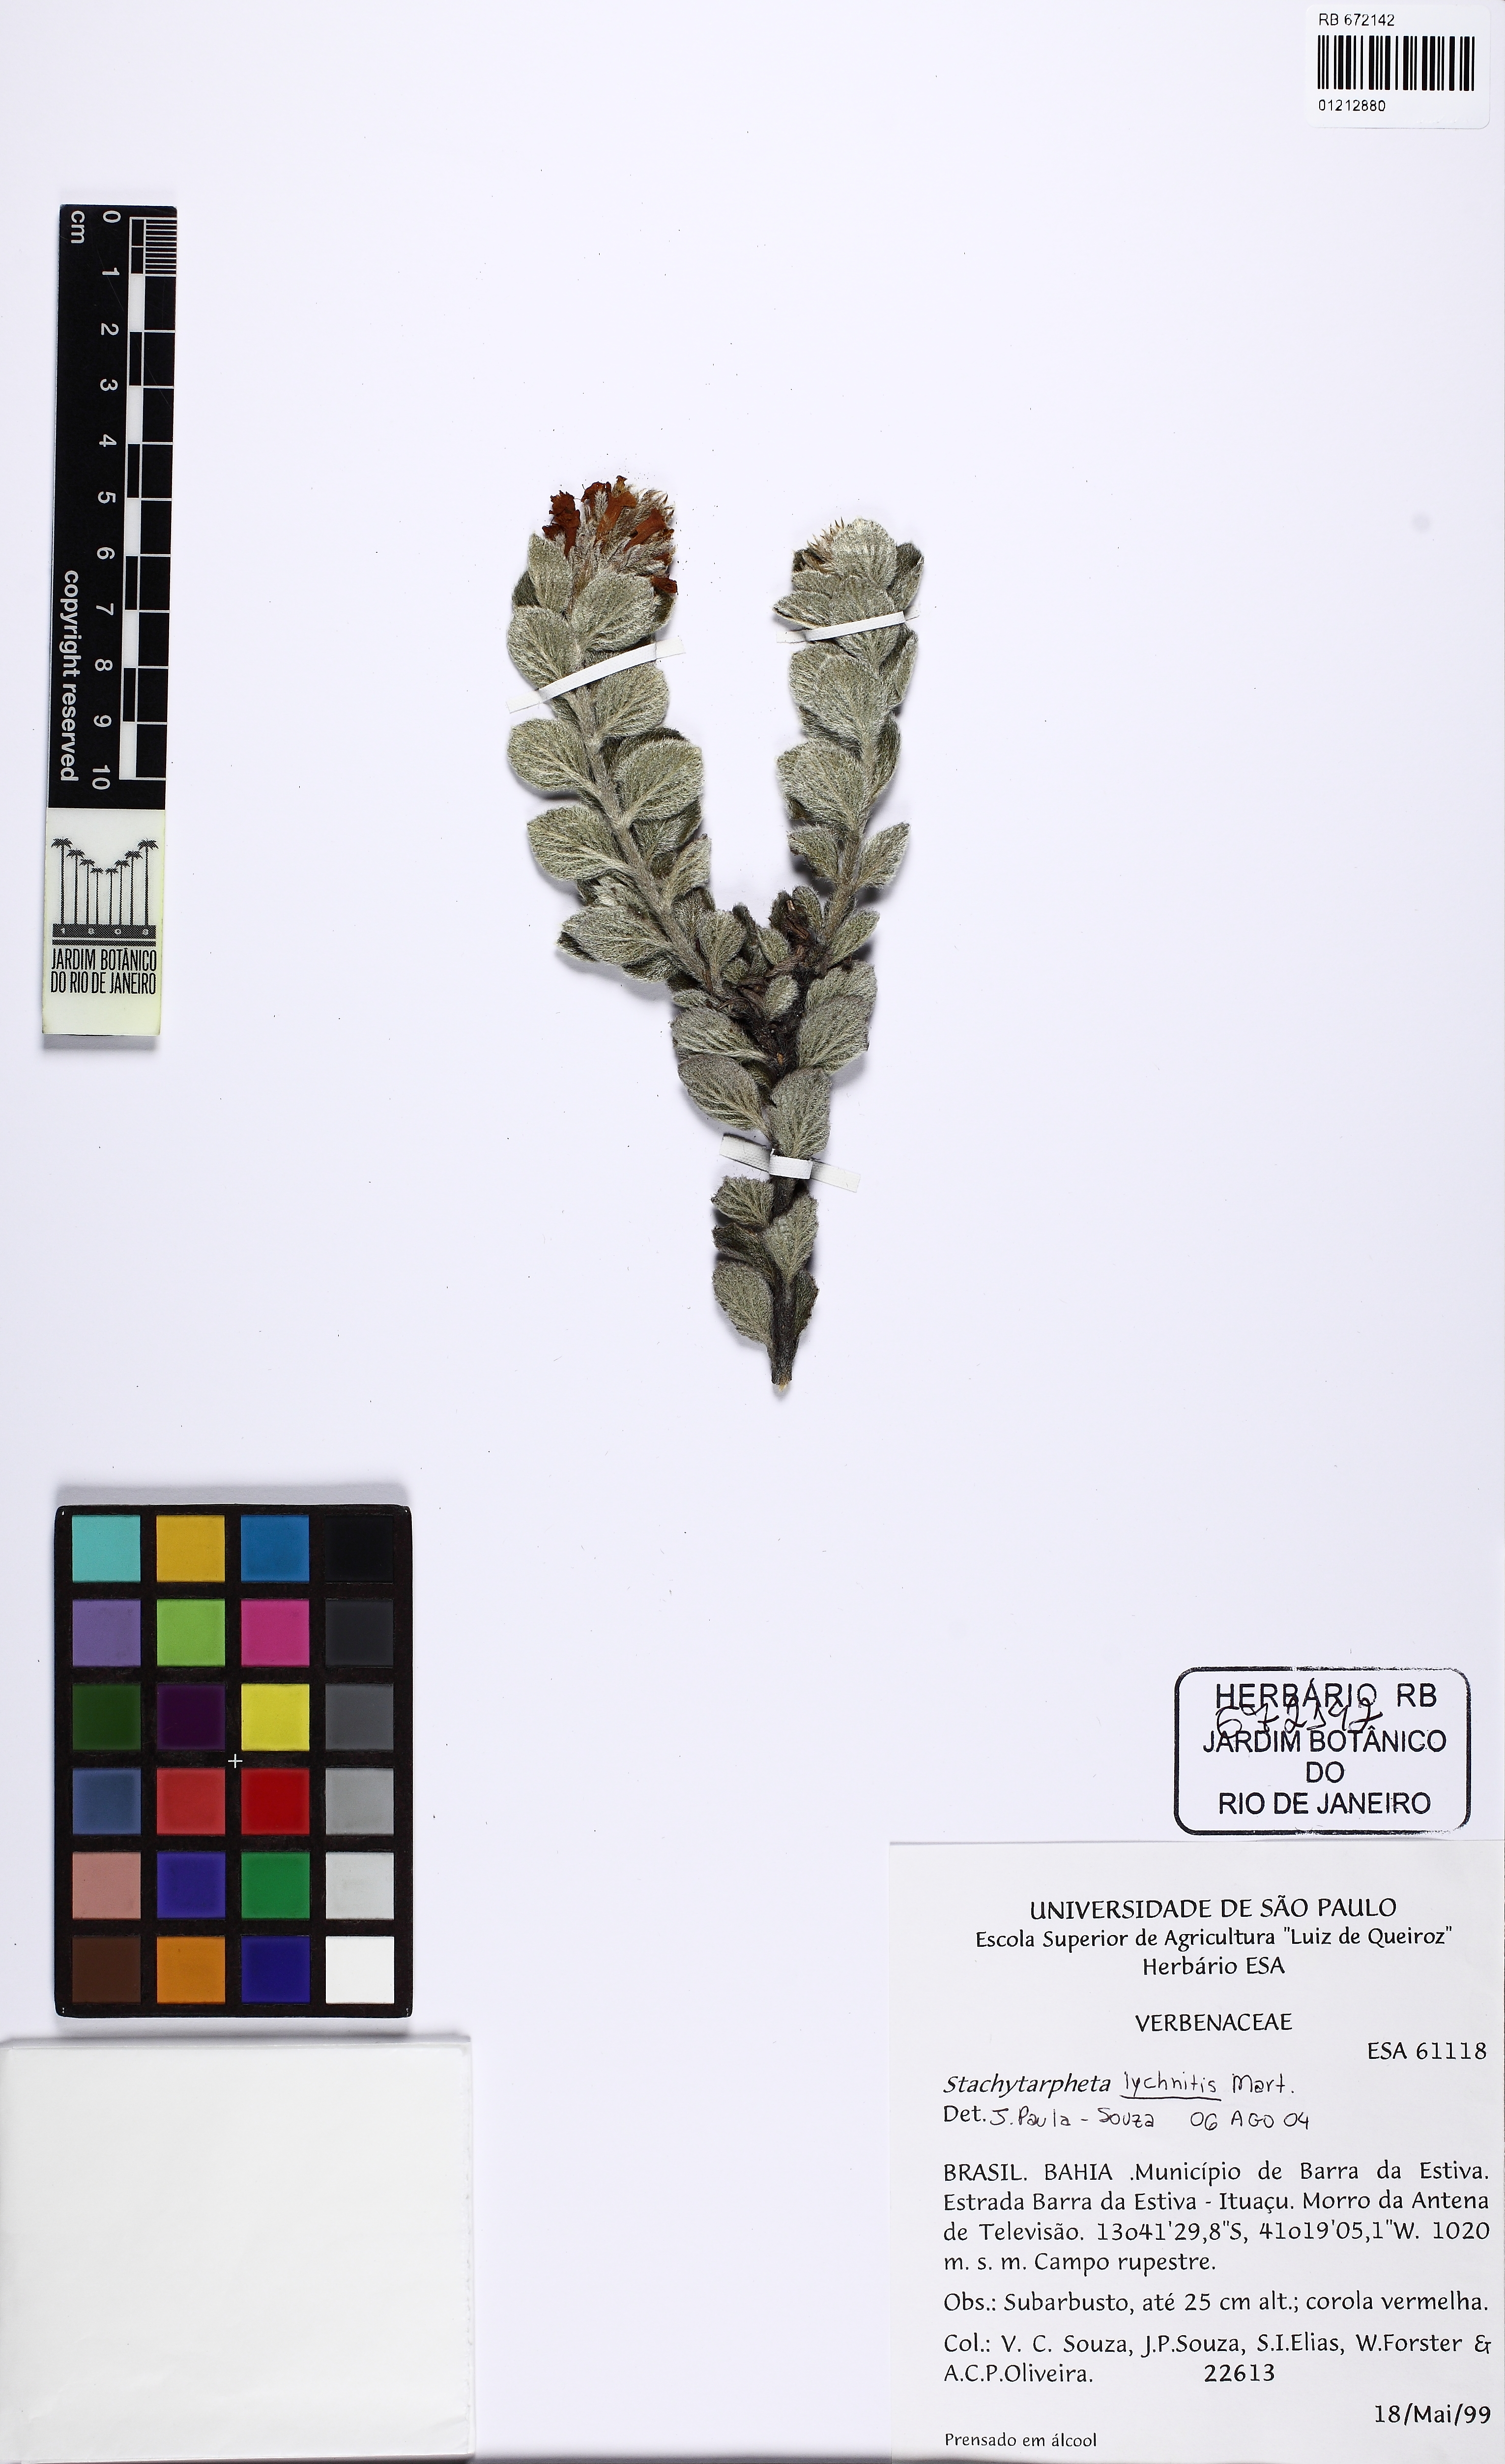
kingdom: Plantae
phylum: Tracheophyta
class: Magnoliopsida
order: Lamiales
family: Verbenaceae
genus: Stachytarpheta
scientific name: Stachytarpheta lychnitis
